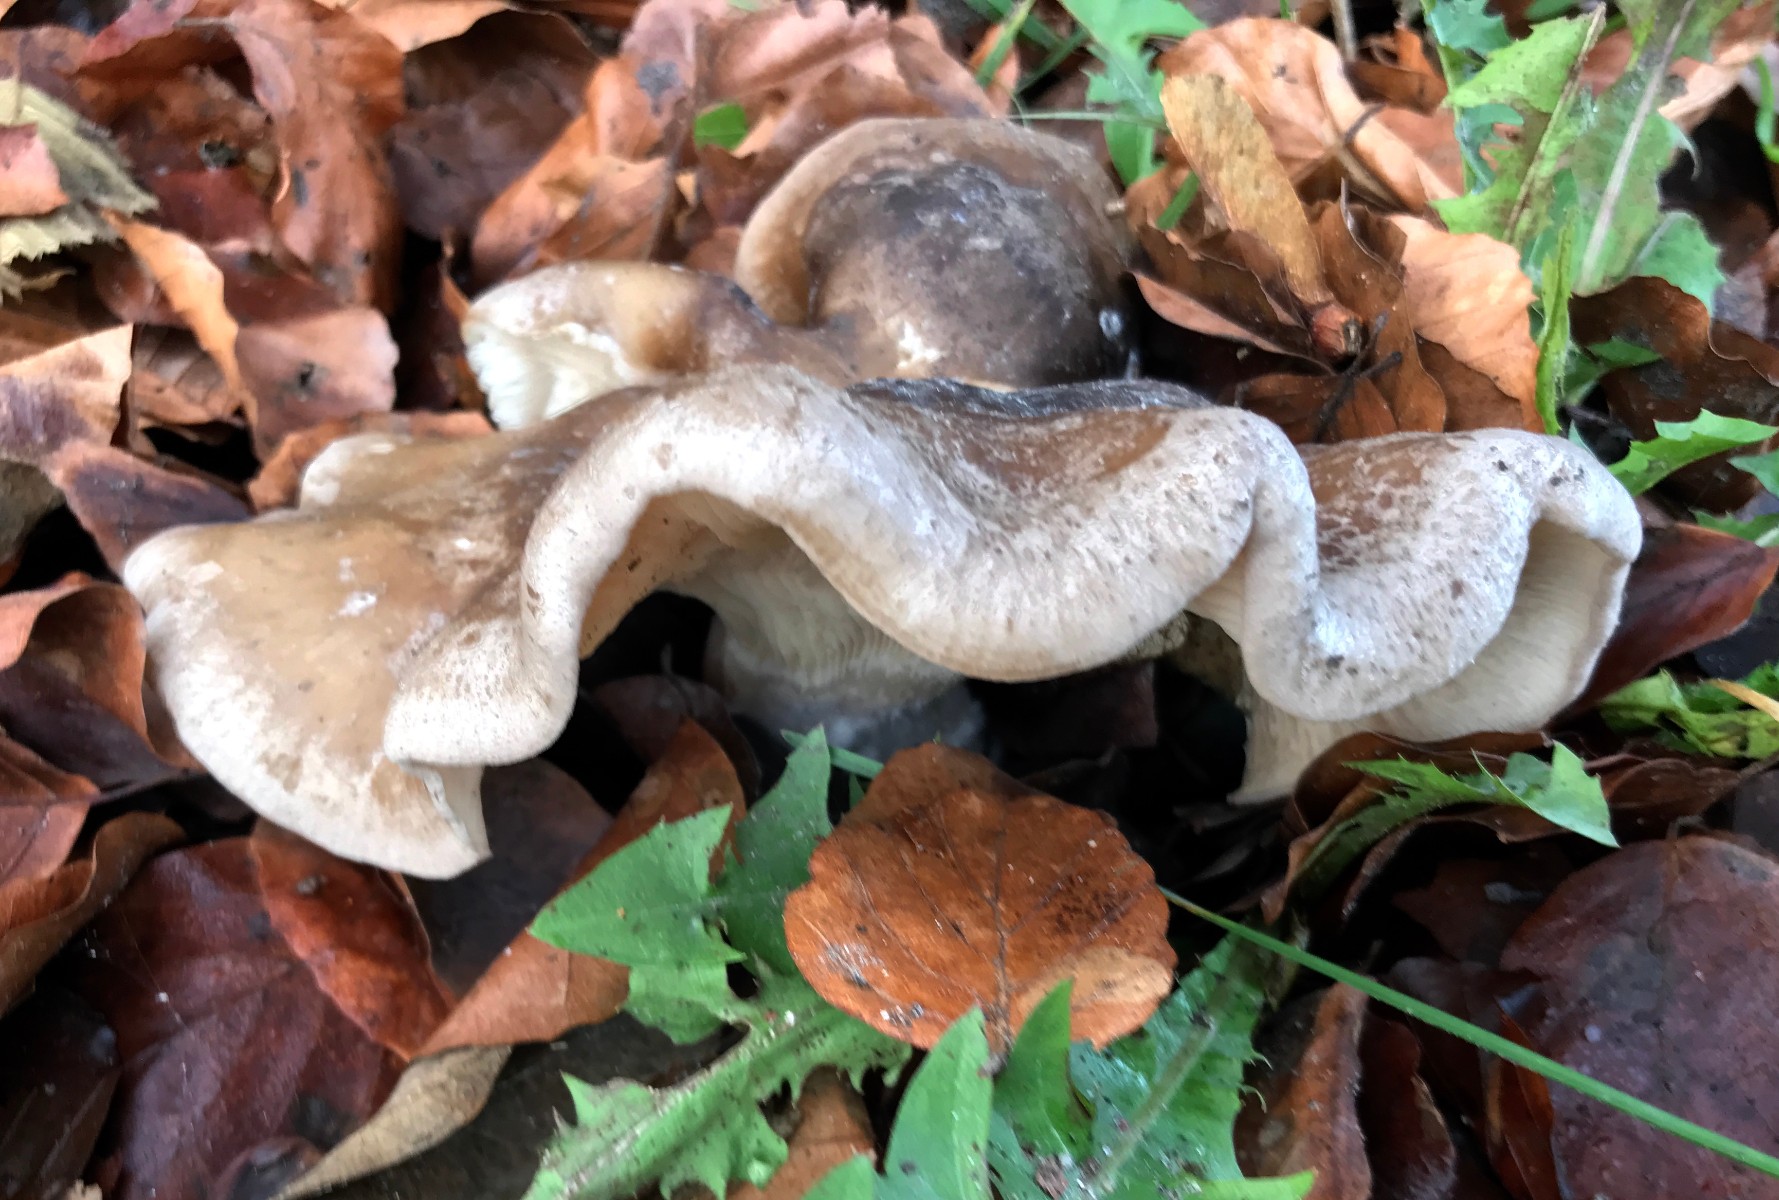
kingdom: Fungi
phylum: Basidiomycota
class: Agaricomycetes
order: Agaricales
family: Tricholomataceae
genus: Clitocybe
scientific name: Clitocybe nebularis
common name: tåge-tragthat
